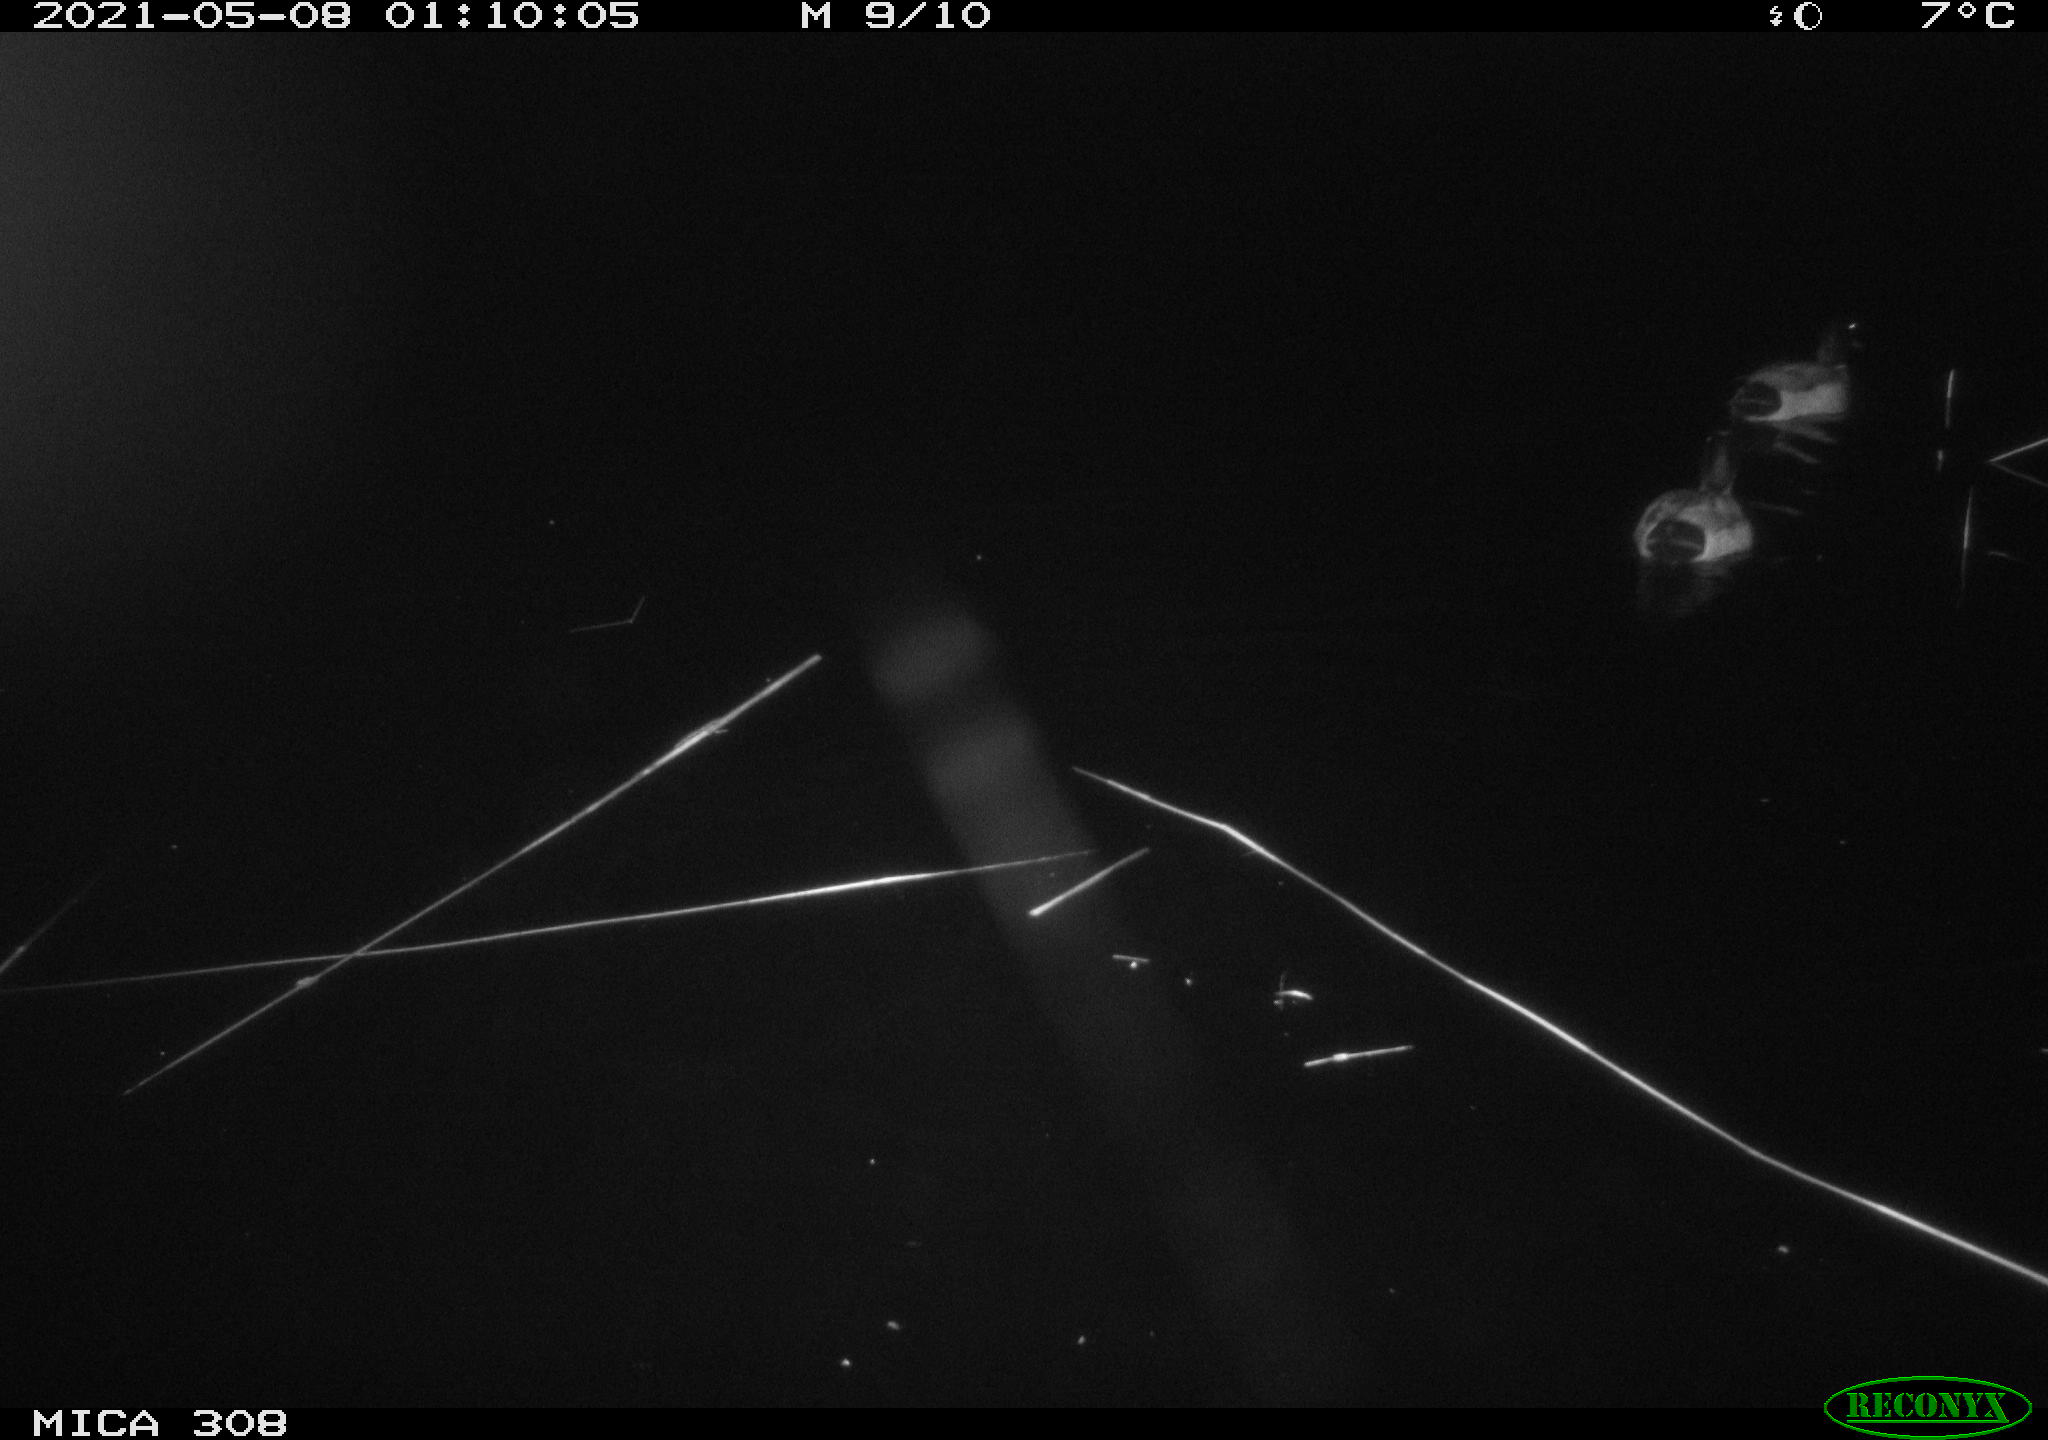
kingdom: Animalia
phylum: Chordata
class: Aves
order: Anseriformes
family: Anatidae
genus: Anas
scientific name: Anas platyrhynchos
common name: Mallard
